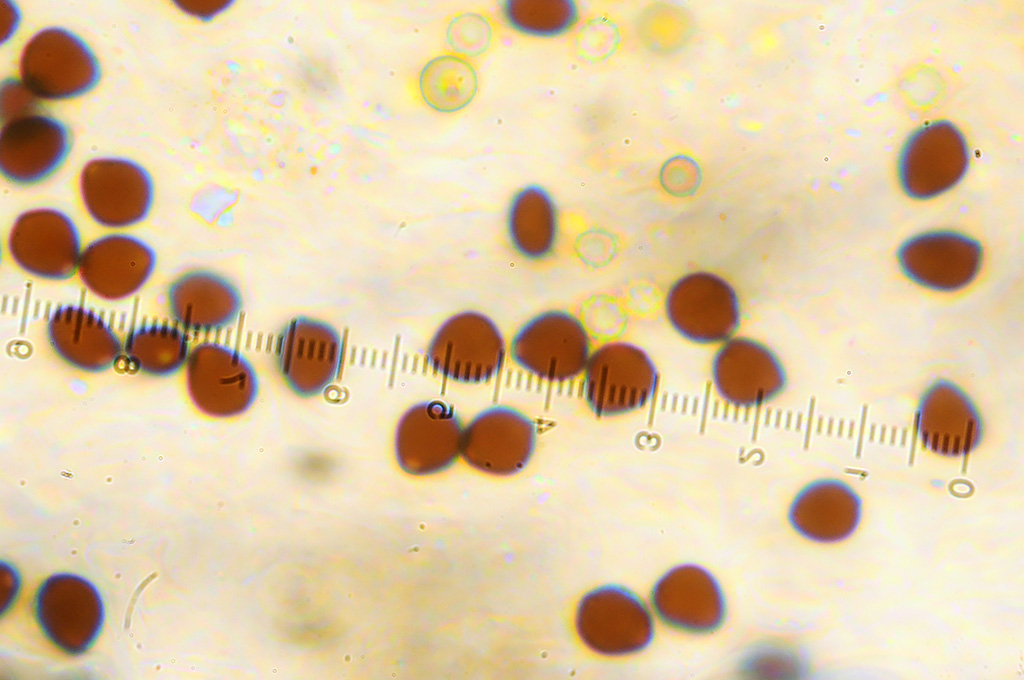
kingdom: Fungi
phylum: Basidiomycota
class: Agaricomycetes
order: Agaricales
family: Psathyrellaceae
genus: Parasola
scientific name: Parasola crataegi
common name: tjørne-hjulhat
